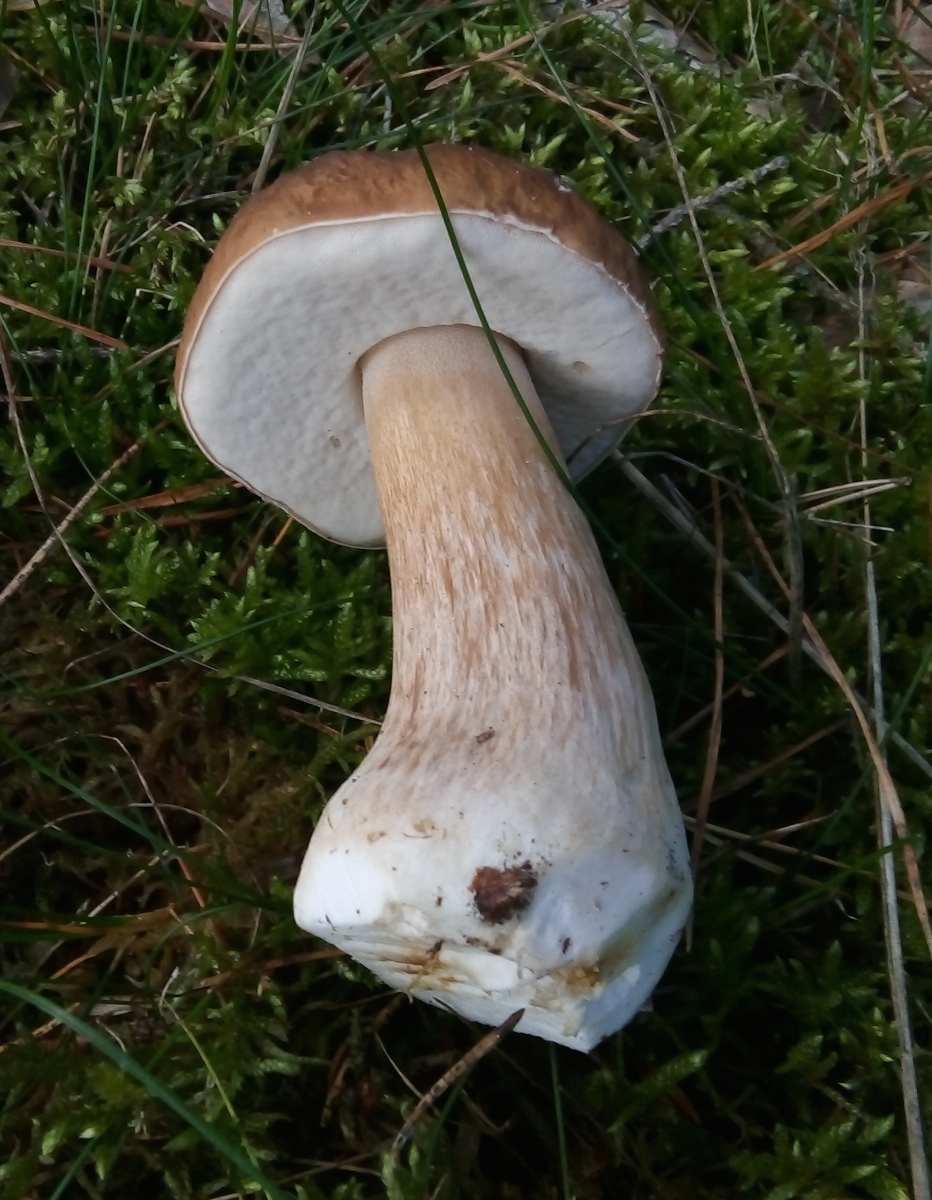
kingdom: Fungi
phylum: Basidiomycota
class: Agaricomycetes
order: Boletales
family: Boletaceae
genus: Boletus
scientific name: Boletus edulis
